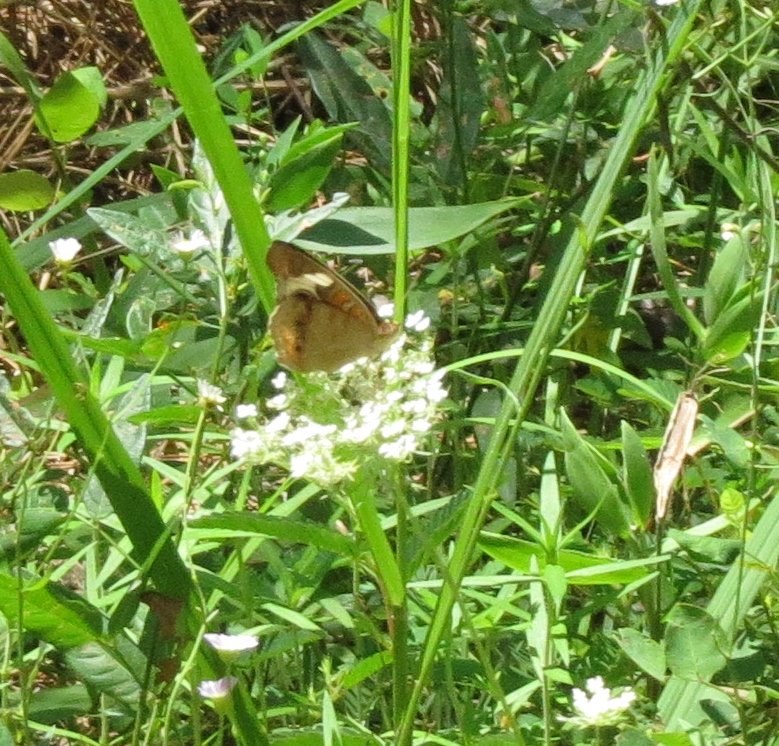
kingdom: Animalia
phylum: Arthropoda
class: Insecta
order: Lepidoptera
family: Nymphalidae
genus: Junonia
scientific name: Junonia coenia
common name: Common Buckeye
